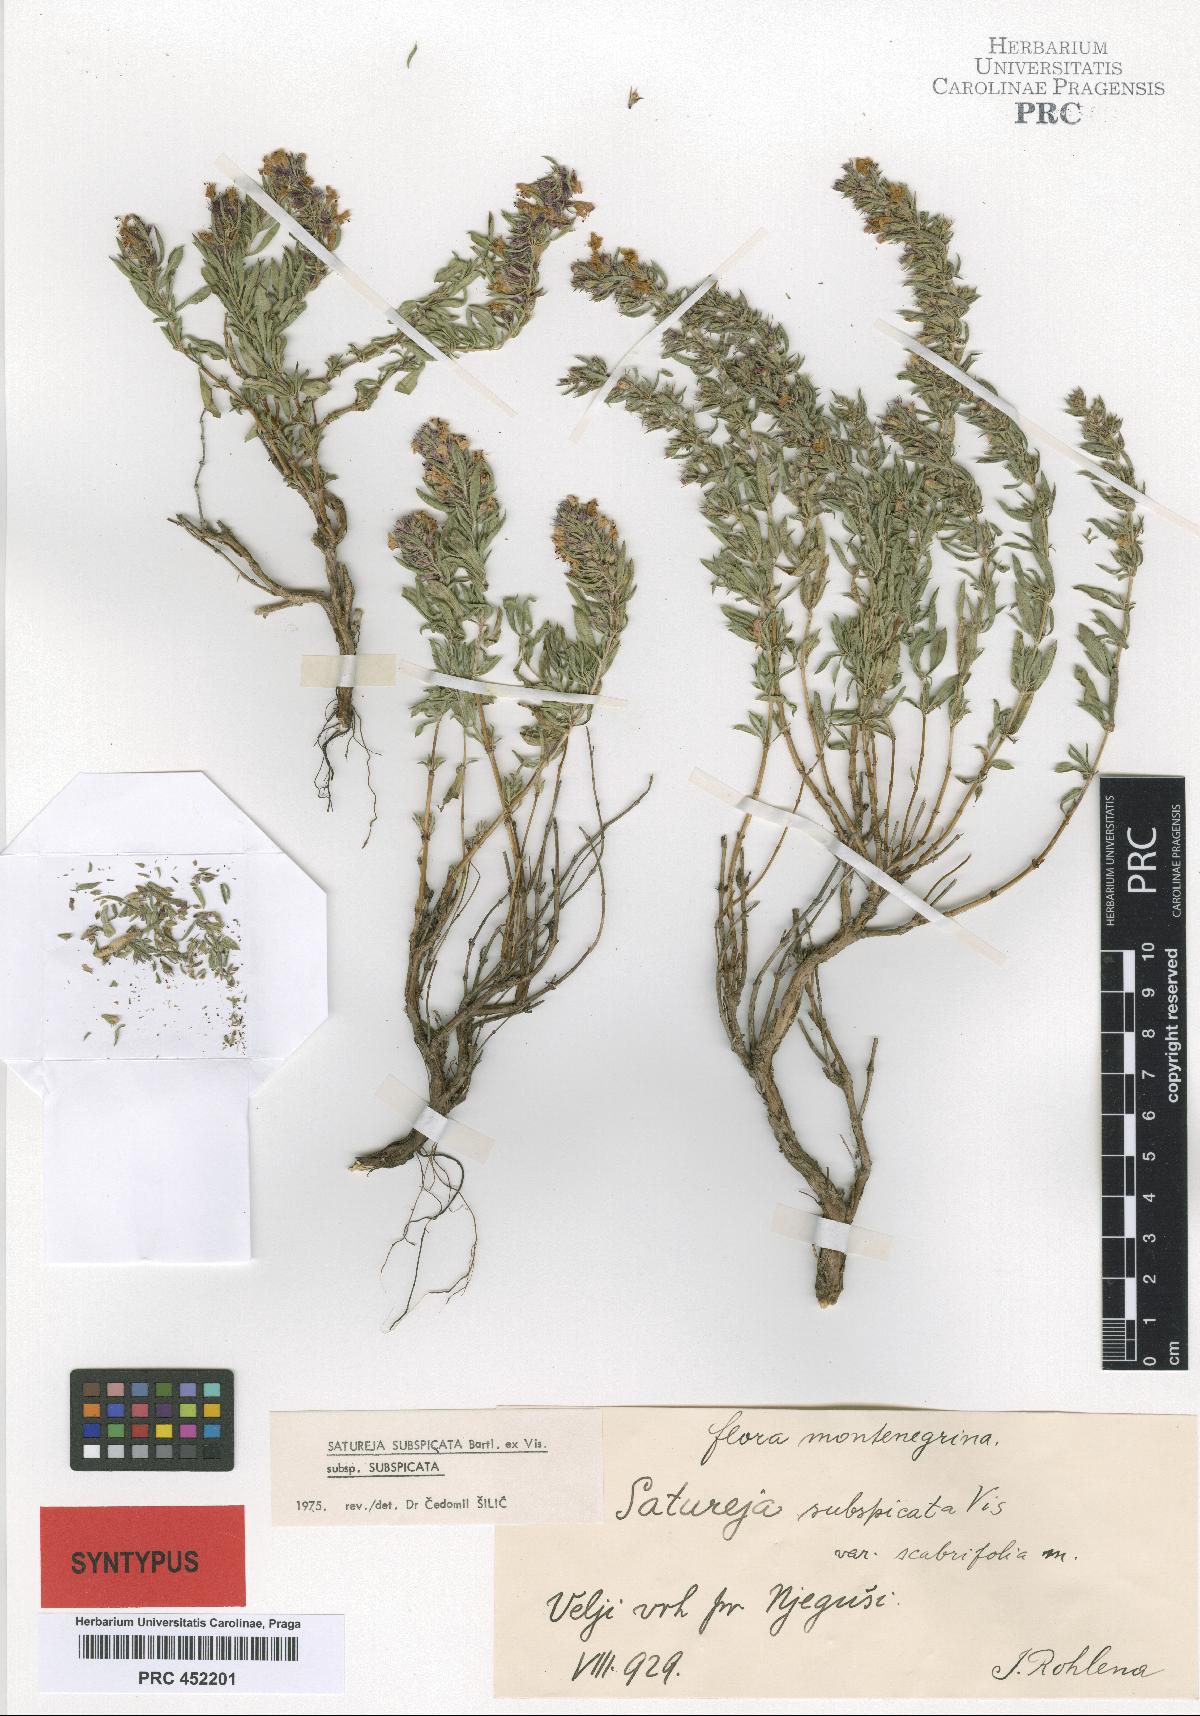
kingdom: Plantae
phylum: Tracheophyta
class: Magnoliopsida
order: Lamiales
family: Lamiaceae
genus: Satureja
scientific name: Satureja subspicata
